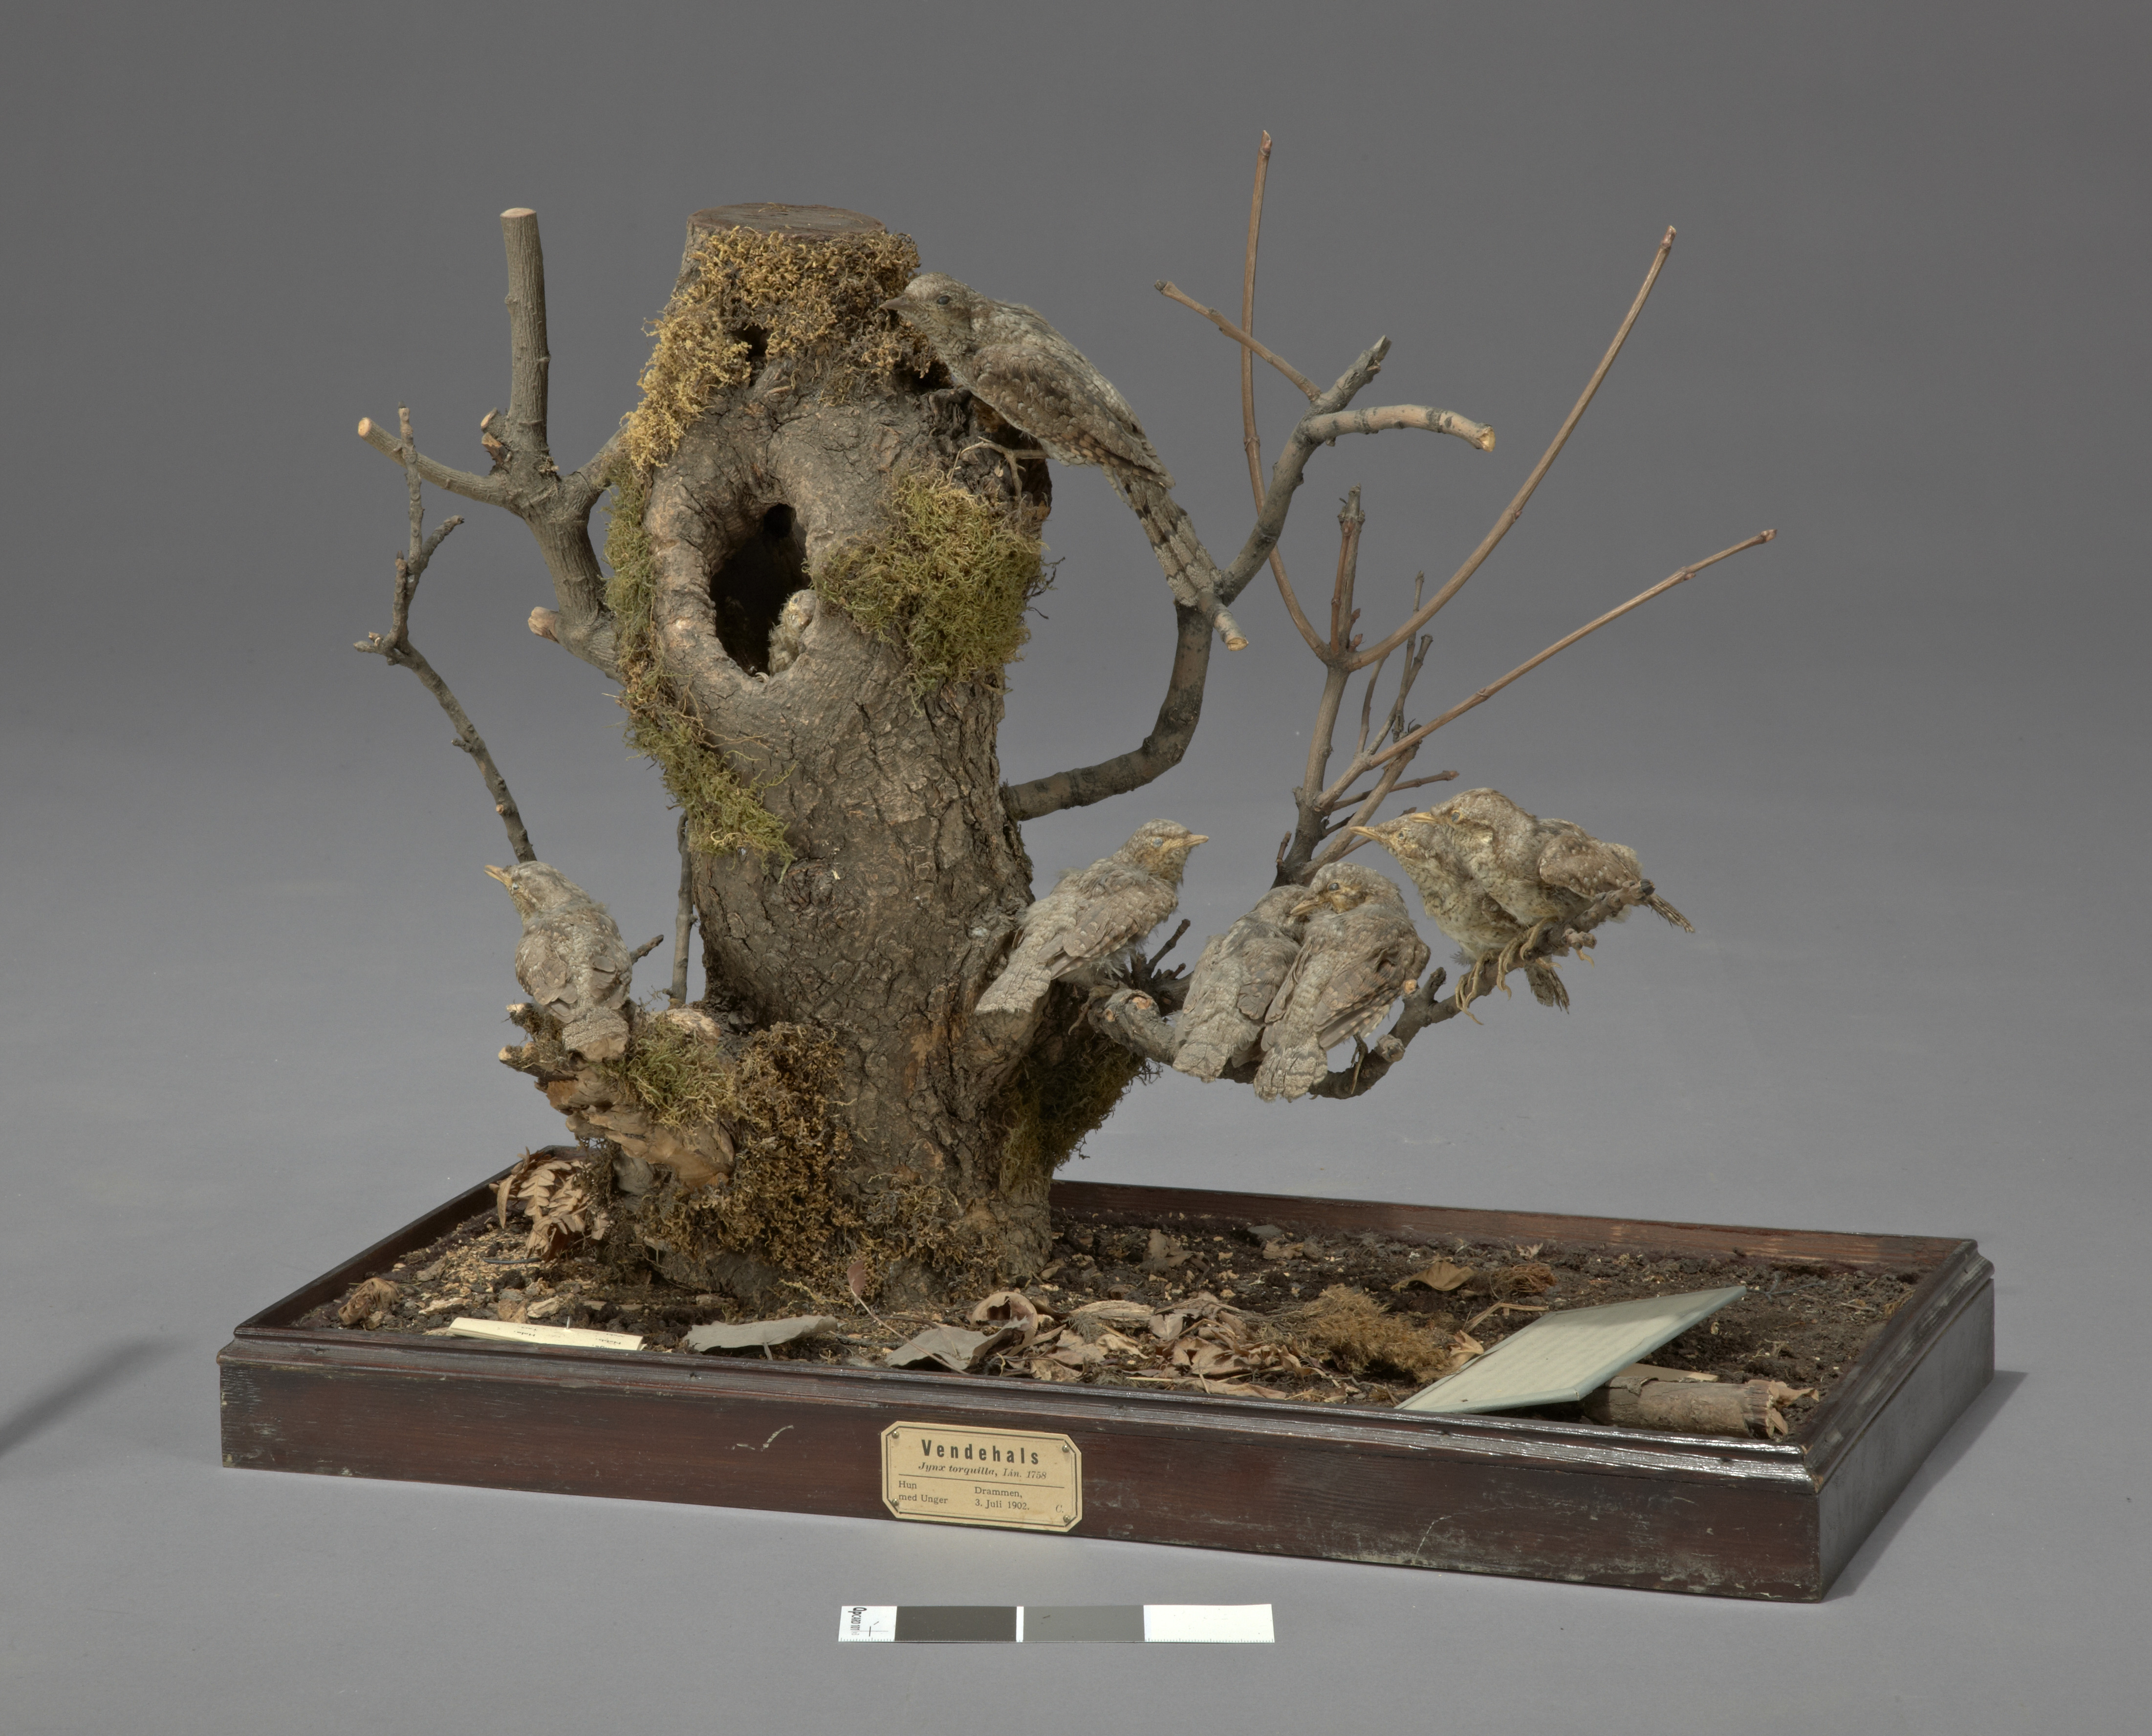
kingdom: Animalia
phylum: Chordata
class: Aves
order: Piciformes
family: Picidae
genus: Jynx
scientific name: Jynx torquilla
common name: Eurasian wryneck
